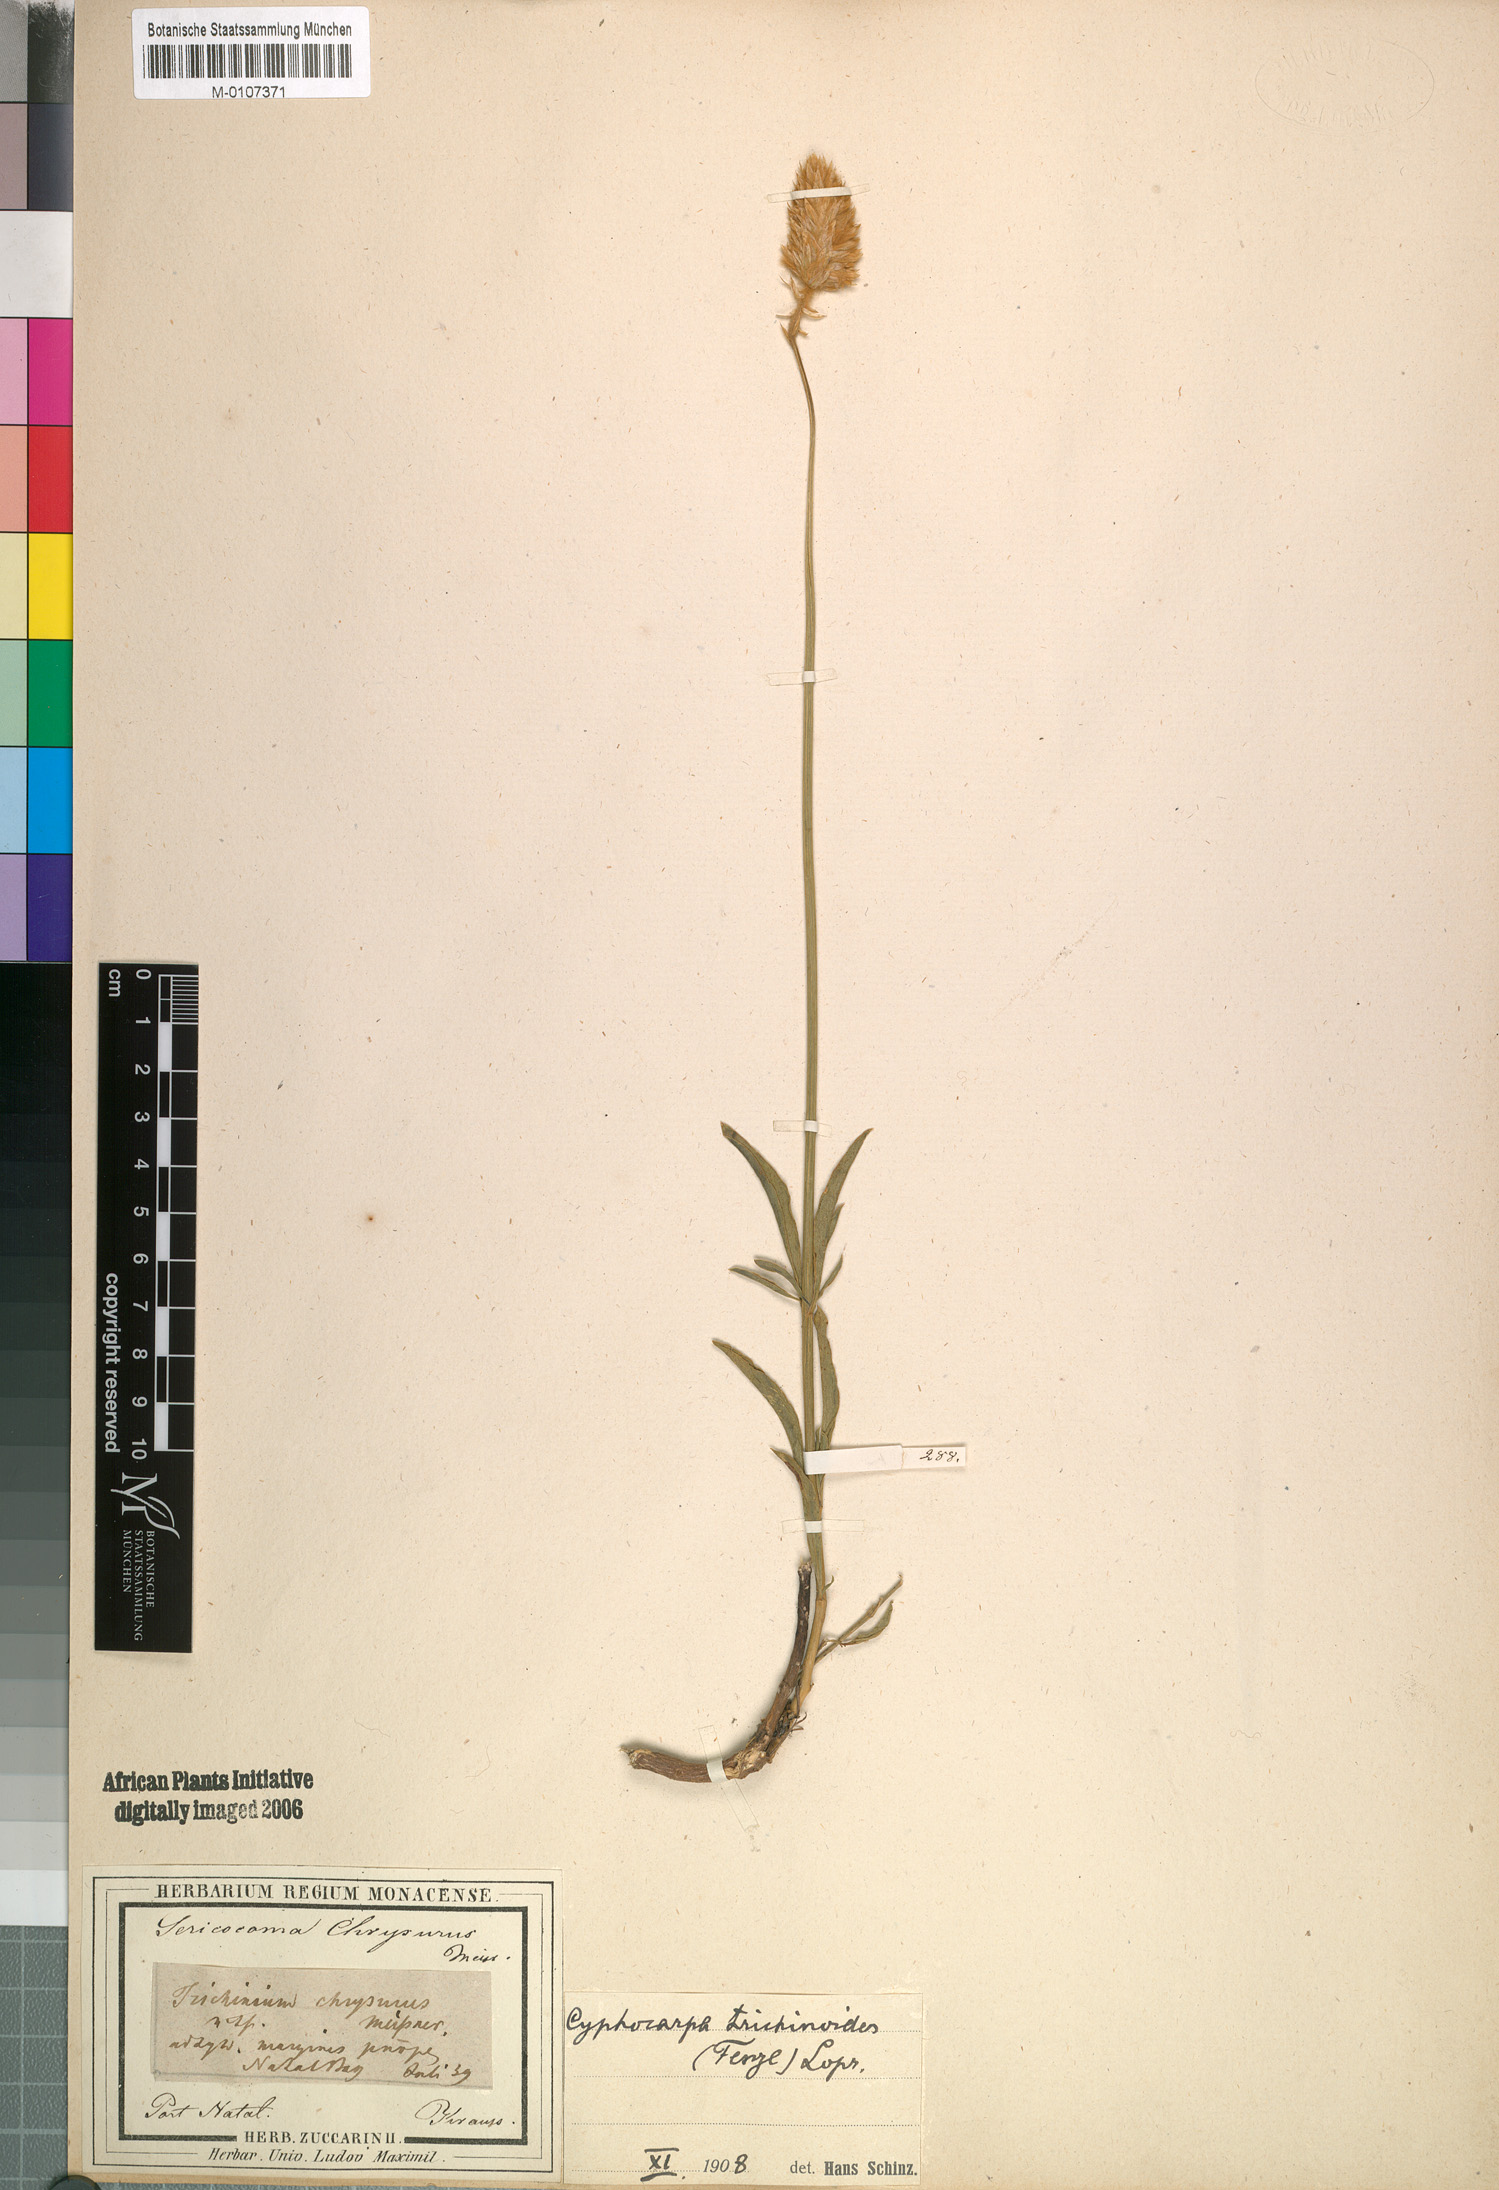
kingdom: Plantae
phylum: Tracheophyta
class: Magnoliopsida
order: Caryophyllales
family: Amaranthaceae
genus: Cyphocarpa
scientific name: Cyphocarpa Kyphocarpa trichinoides
